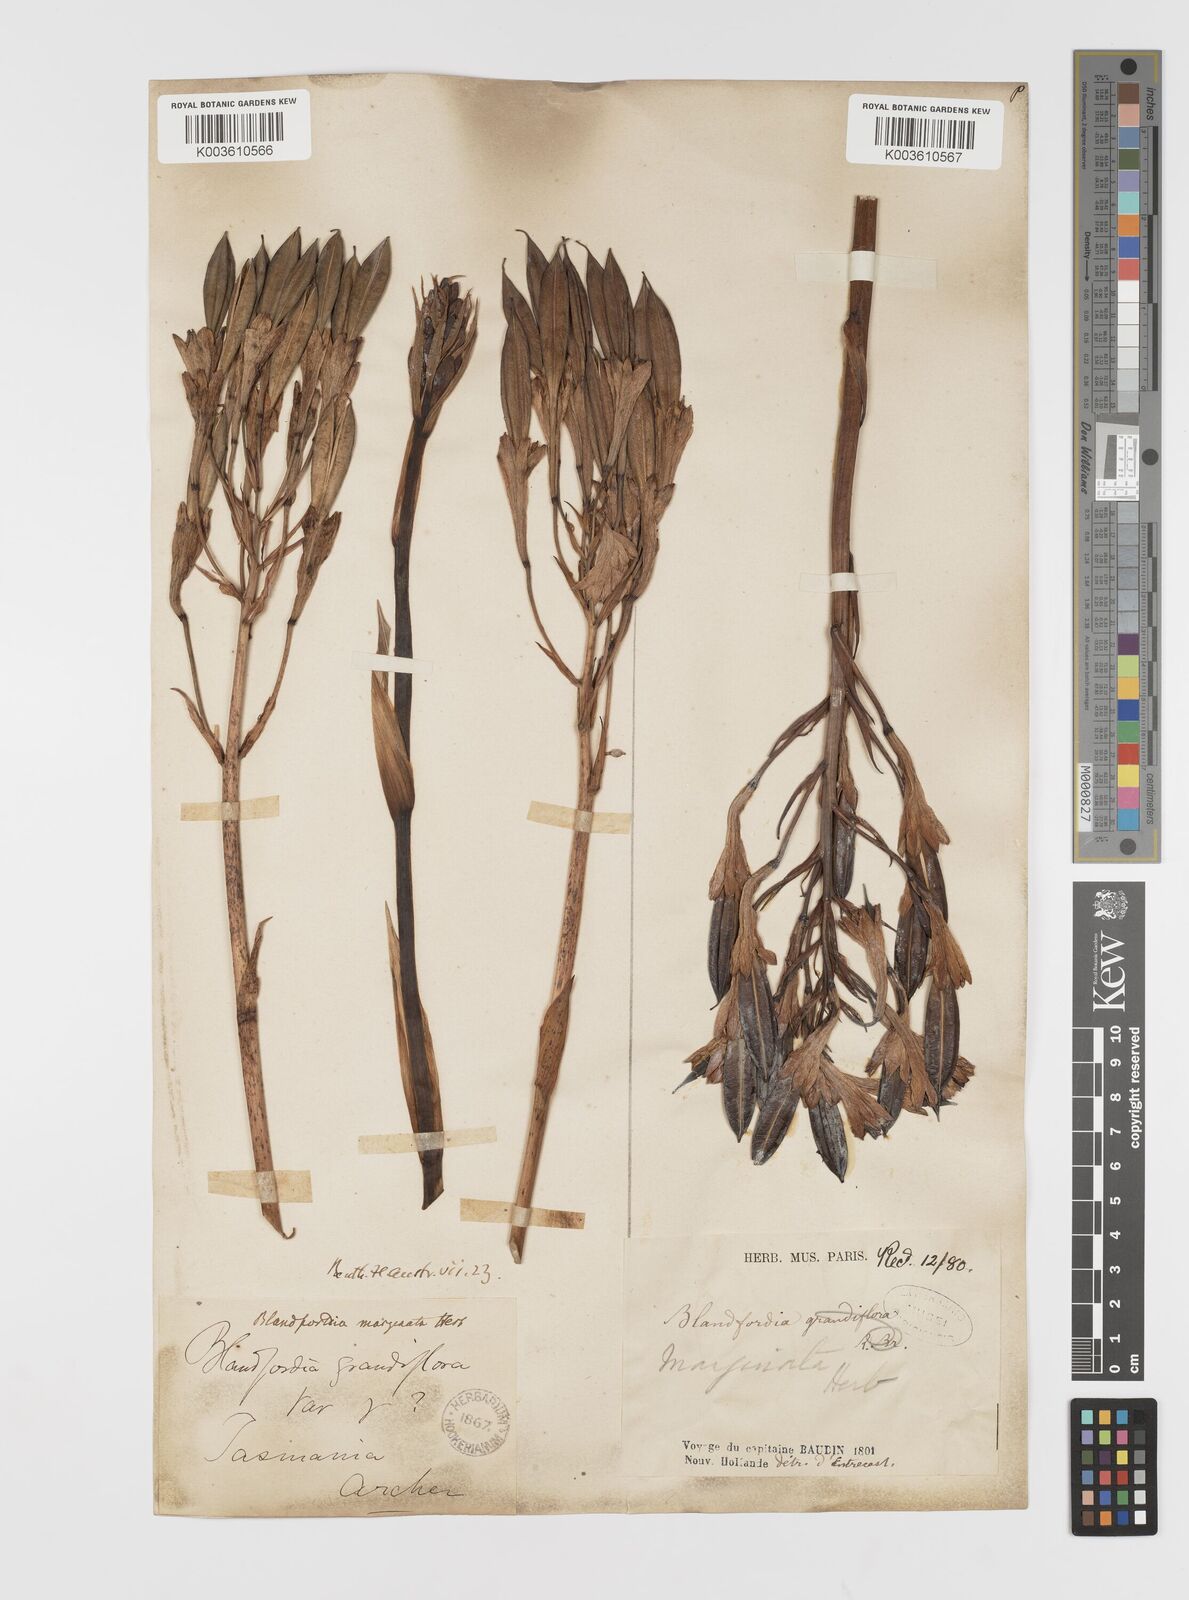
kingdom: Plantae
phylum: Tracheophyta
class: Liliopsida
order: Asparagales
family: Blandfordiaceae
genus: Blandfordia
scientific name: Blandfordia punicea
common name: Tasmanian christmas-bell
